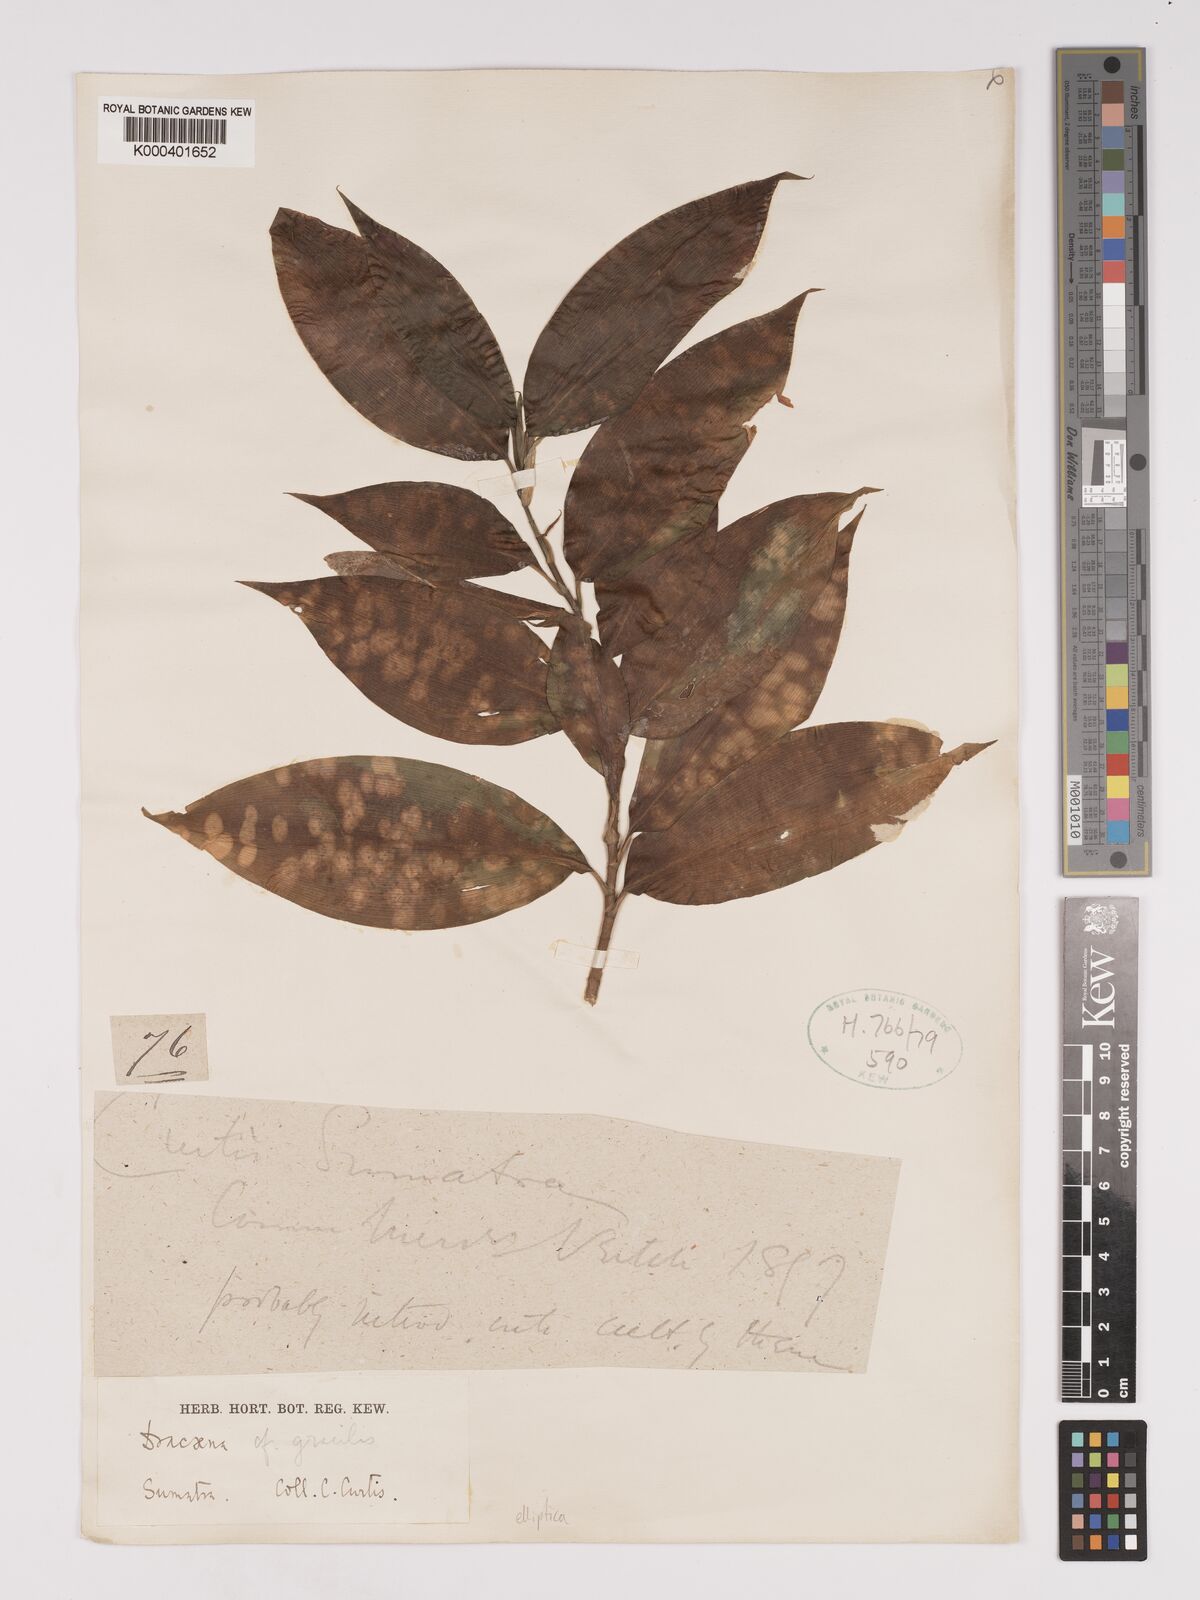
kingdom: Plantae
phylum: Tracheophyta
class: Liliopsida
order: Asparagales
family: Asparagaceae
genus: Dracaena
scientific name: Dracaena elliptica
